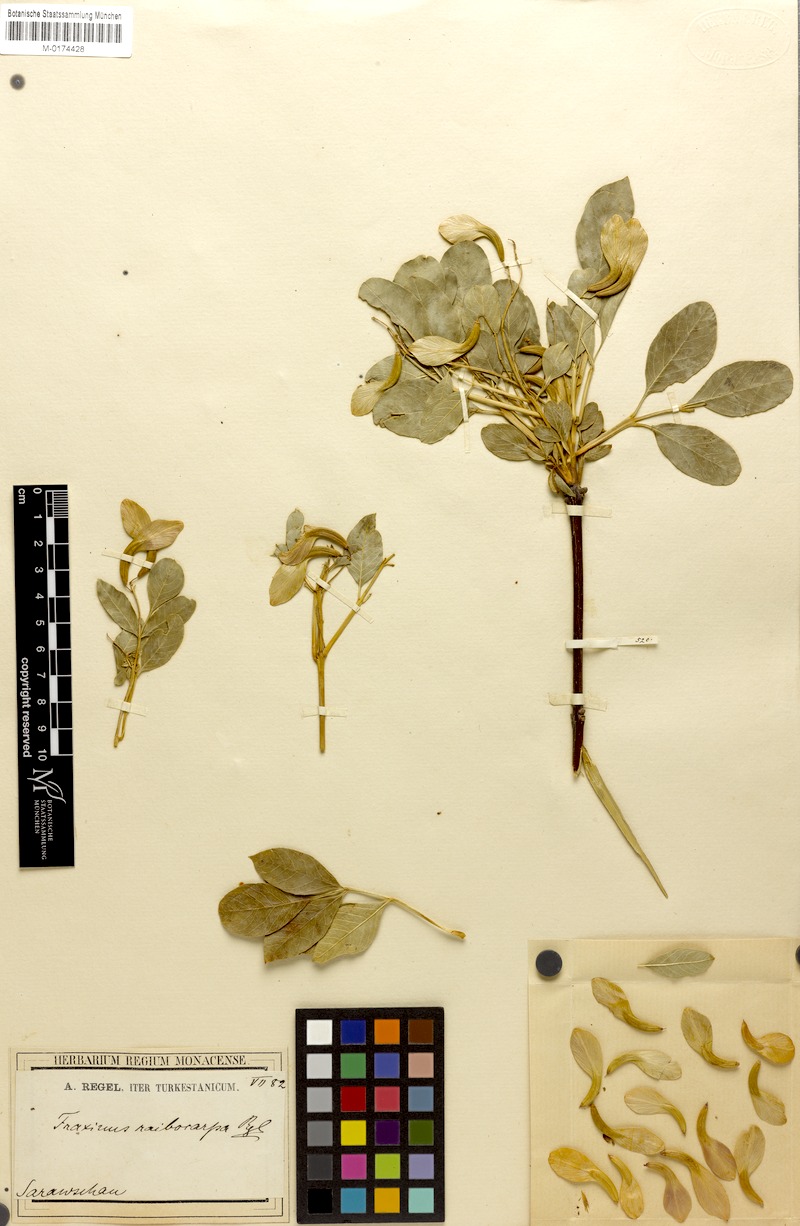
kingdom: Plantae
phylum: Tracheophyta
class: Magnoliopsida
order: Lamiales
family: Oleaceae
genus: Fraxinus
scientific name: Fraxinus raibocarpa
